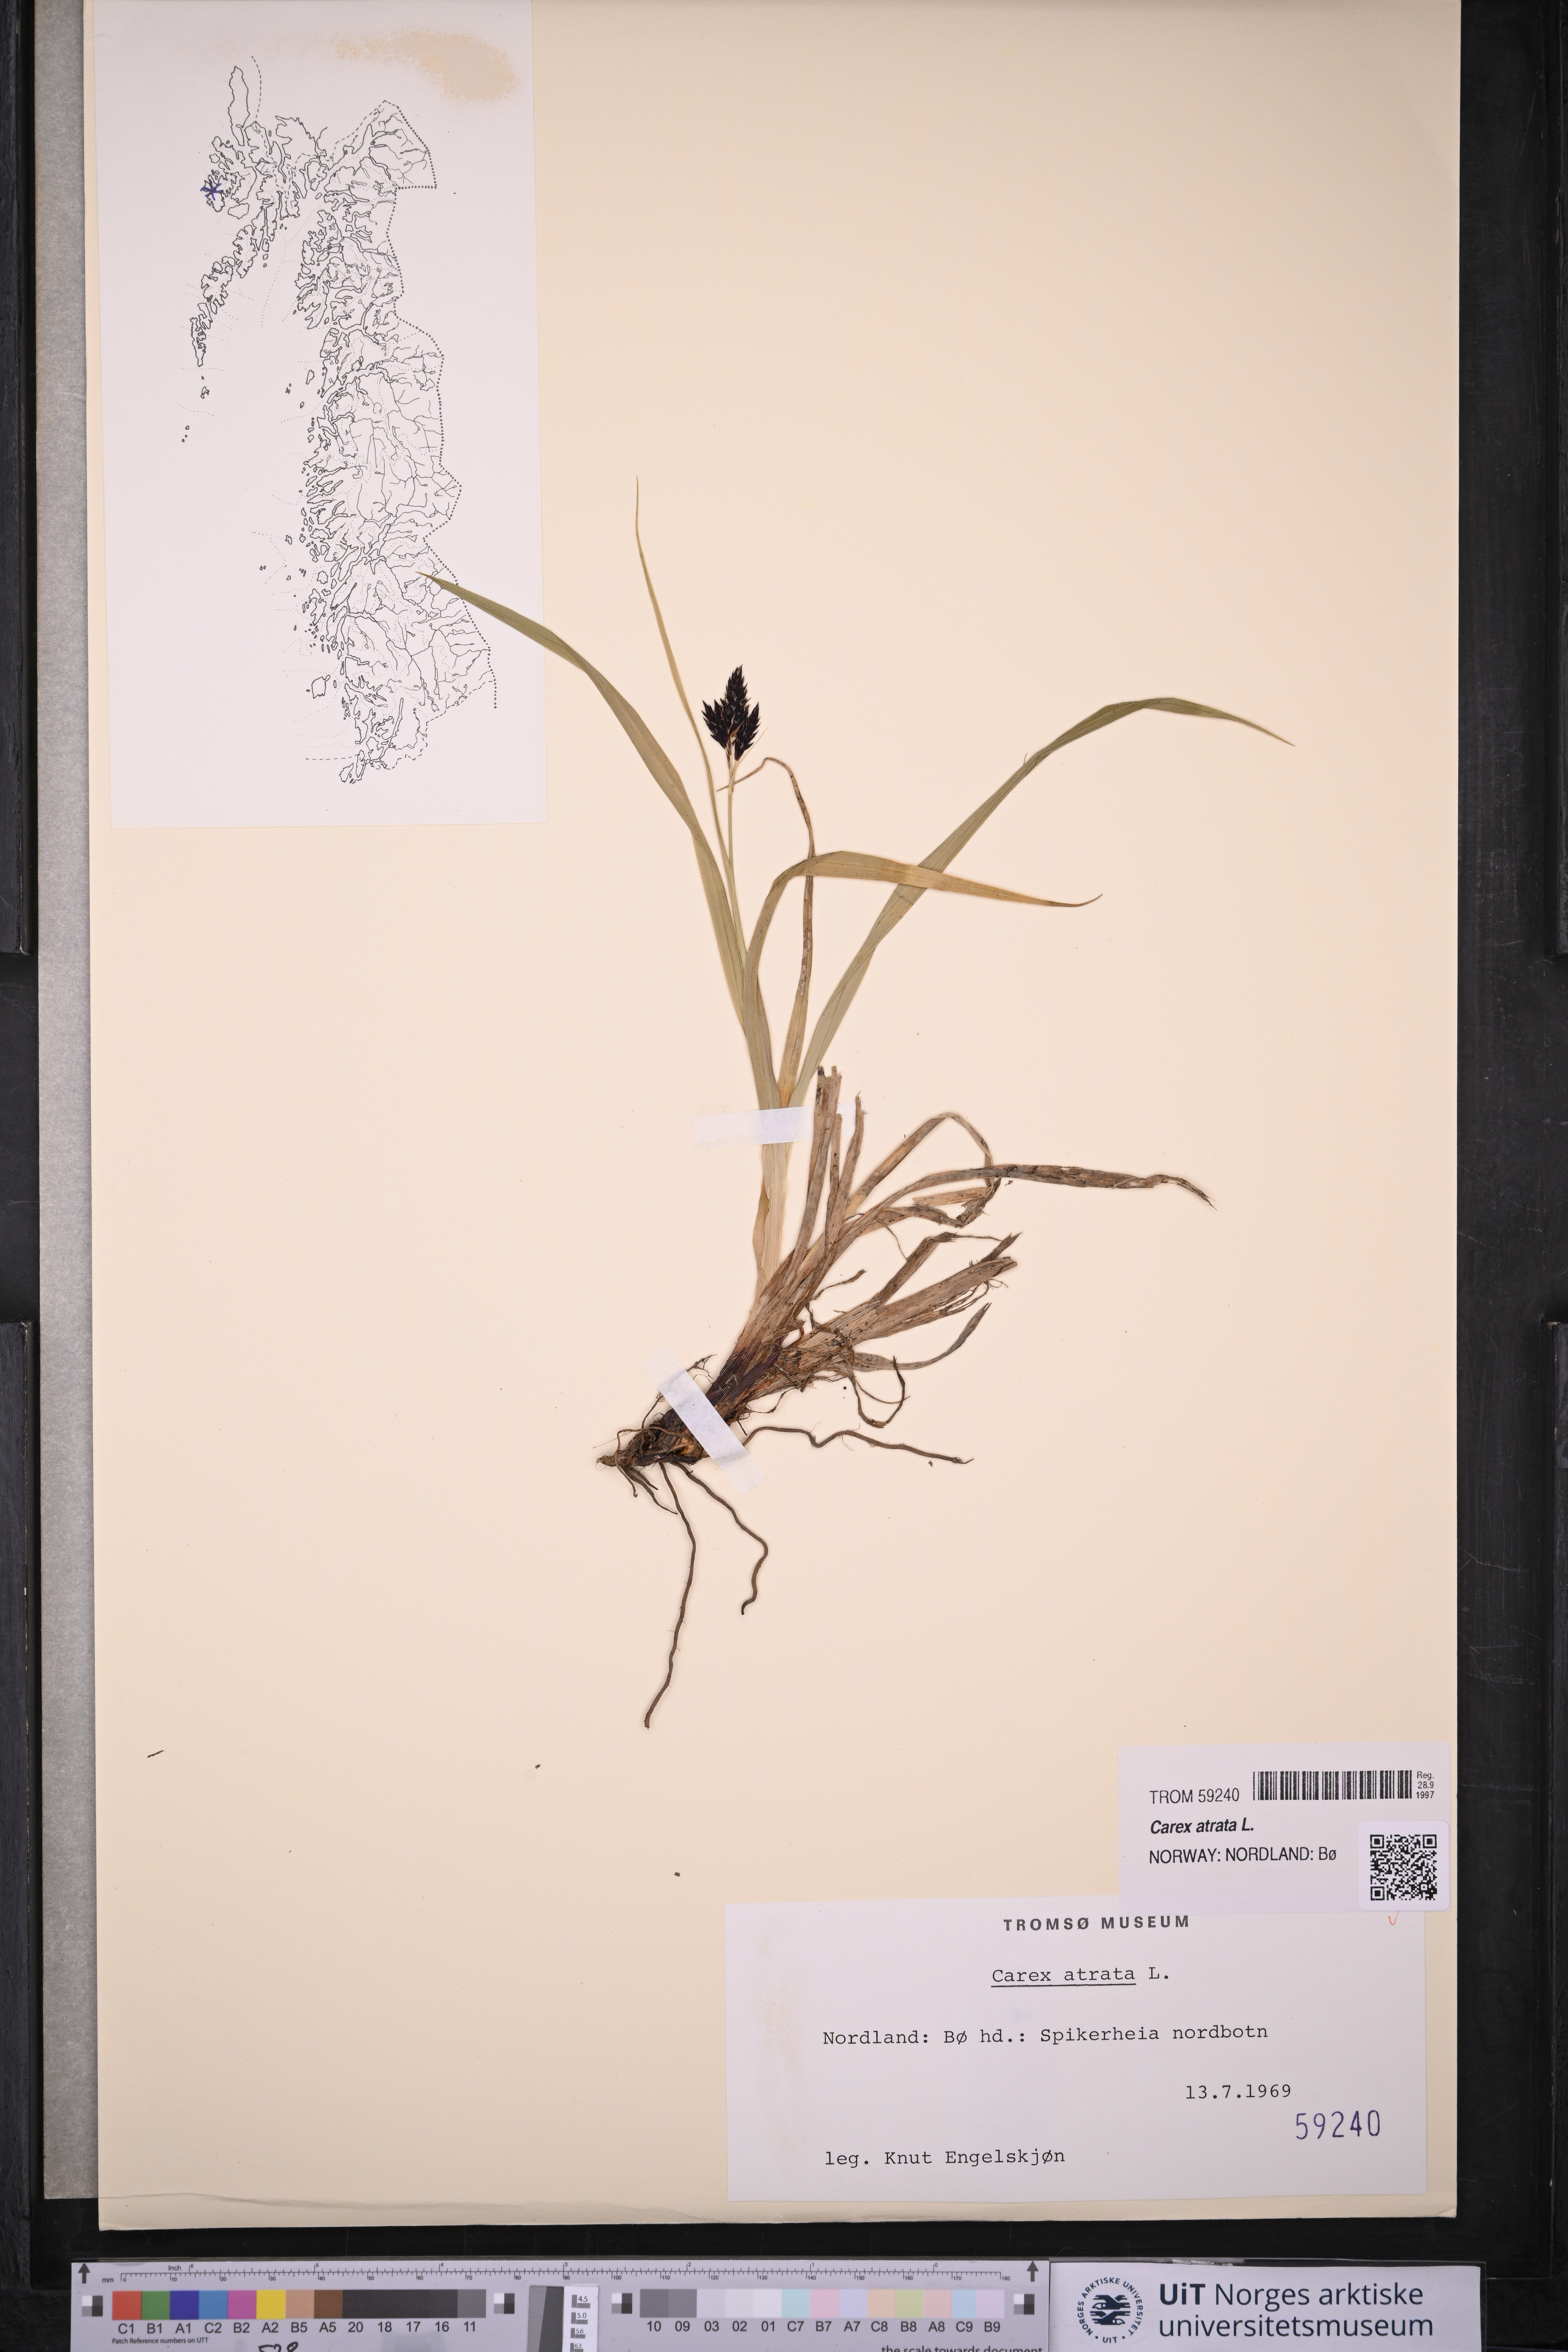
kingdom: Plantae
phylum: Tracheophyta
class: Liliopsida
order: Poales
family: Cyperaceae
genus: Carex
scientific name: Carex atrata
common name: Black alpine sedge
